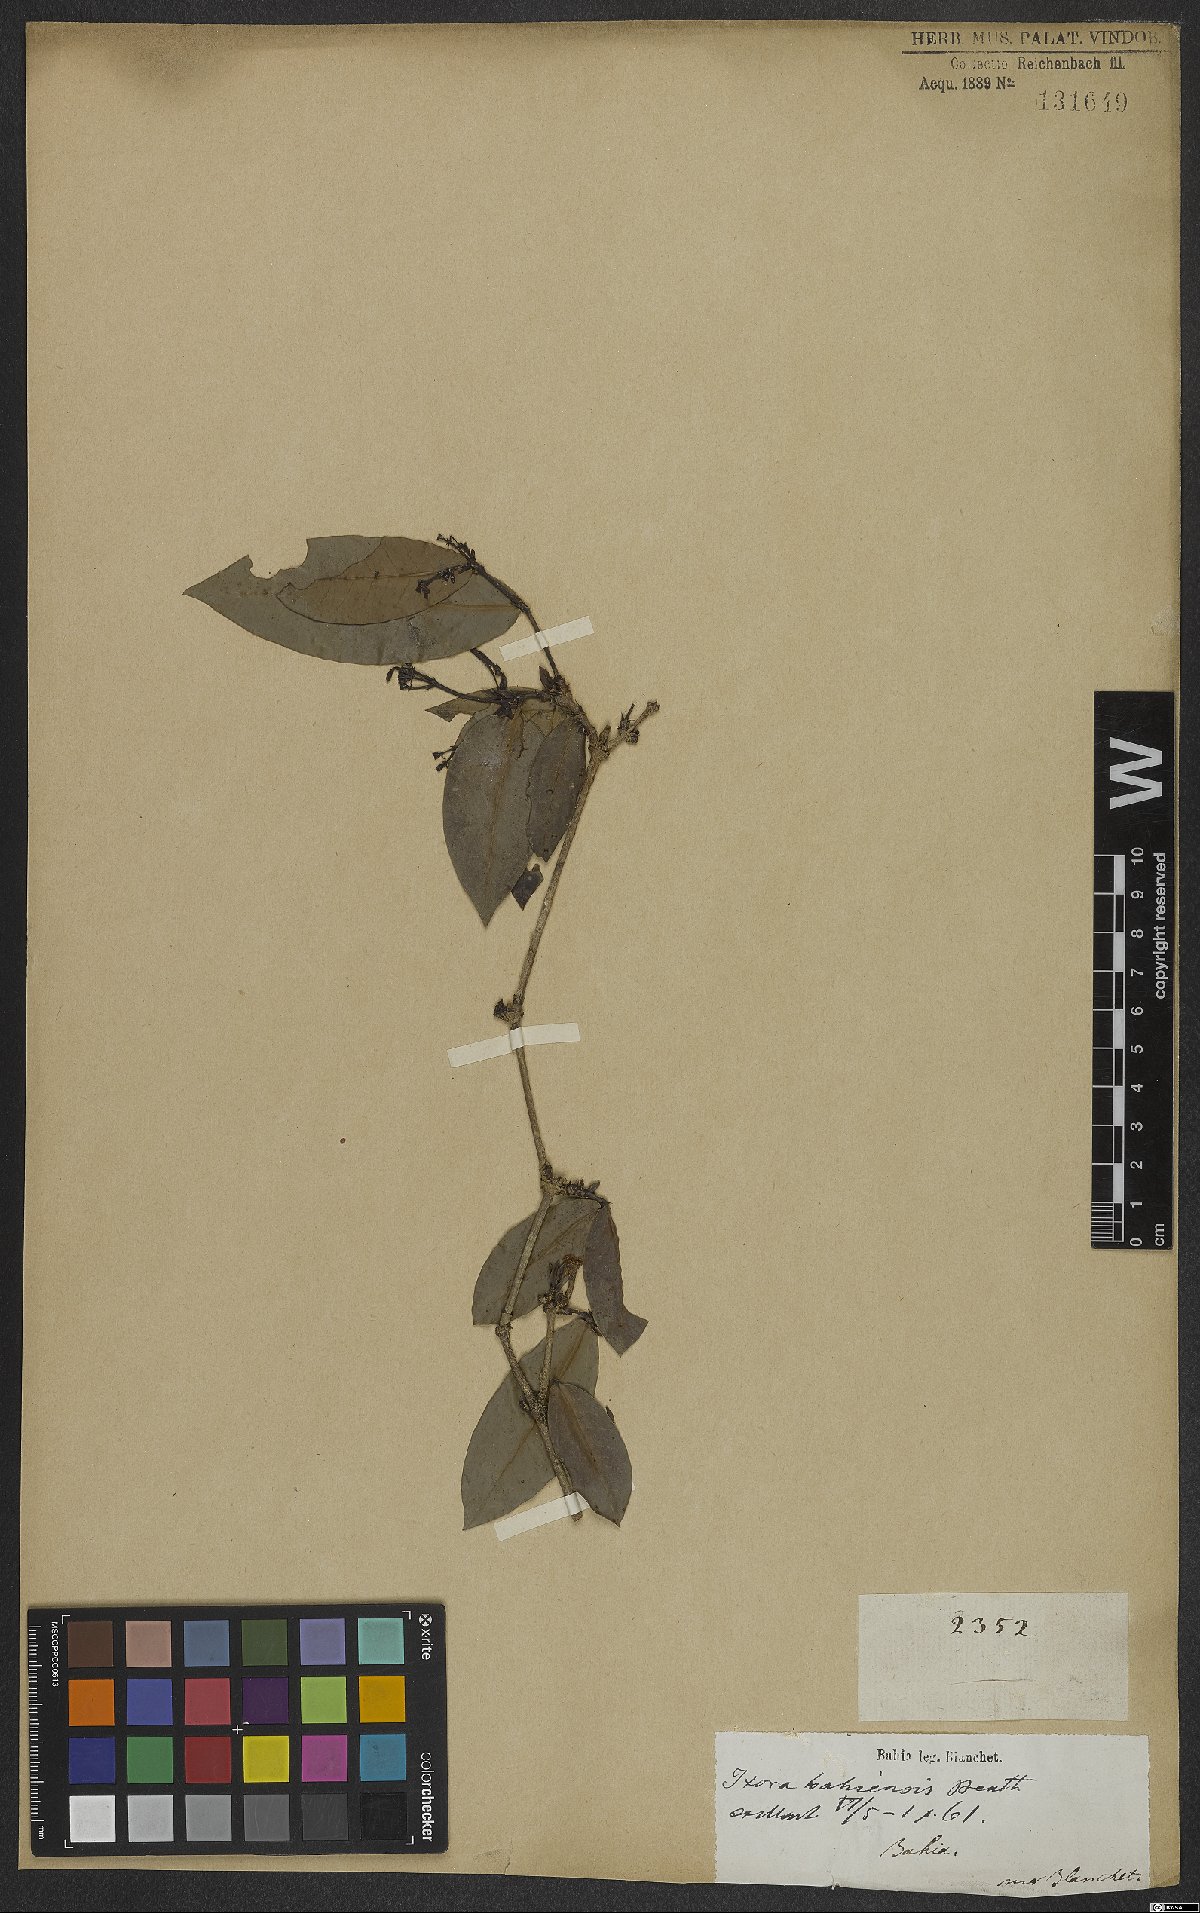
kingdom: Plantae
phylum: Tracheophyta
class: Magnoliopsida
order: Gentianales
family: Rubiaceae
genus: Ixora
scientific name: Ixora bahiensis
